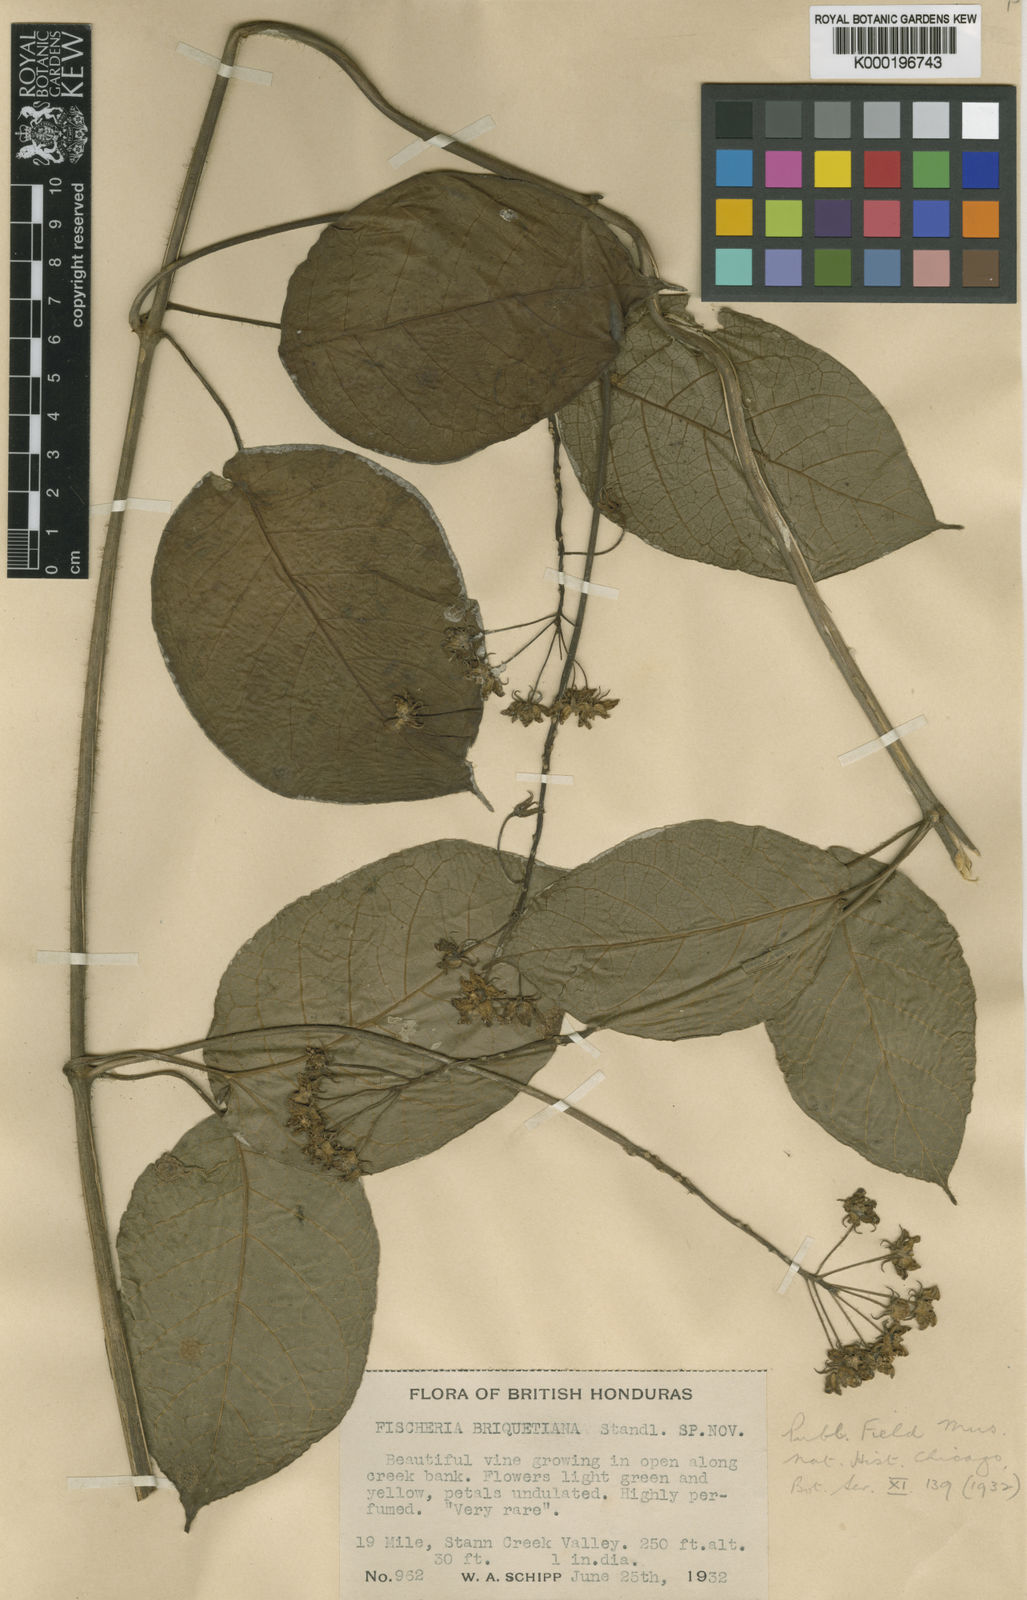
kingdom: Plantae
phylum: Tracheophyta
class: Magnoliopsida
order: Gentianales
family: Apocynaceae
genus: Fischeria
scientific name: Fischeria scandens
